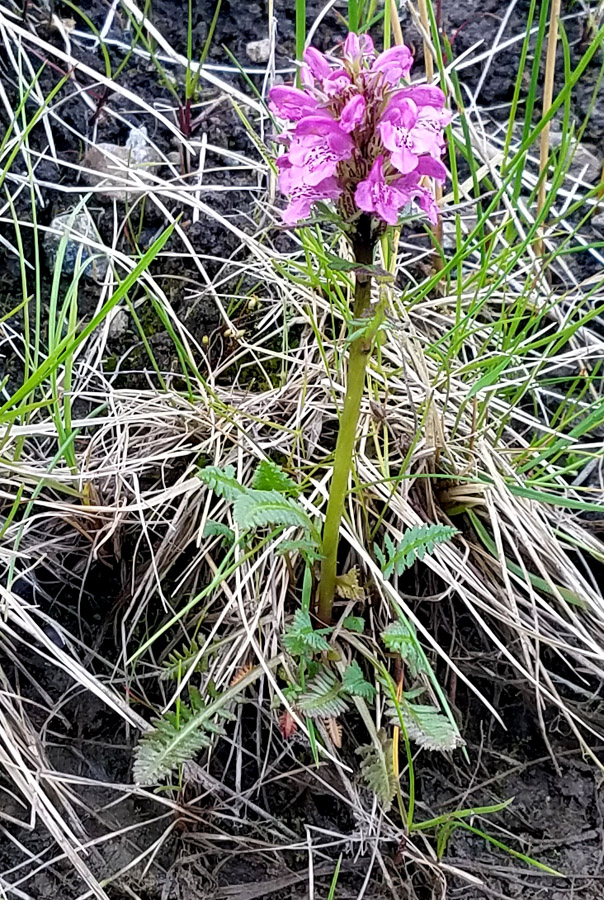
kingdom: Plantae
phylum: Tracheophyta
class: Magnoliopsida
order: Lamiales
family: Orobanchaceae
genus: Pedicularis
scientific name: Pedicularis arctoeuropaea
